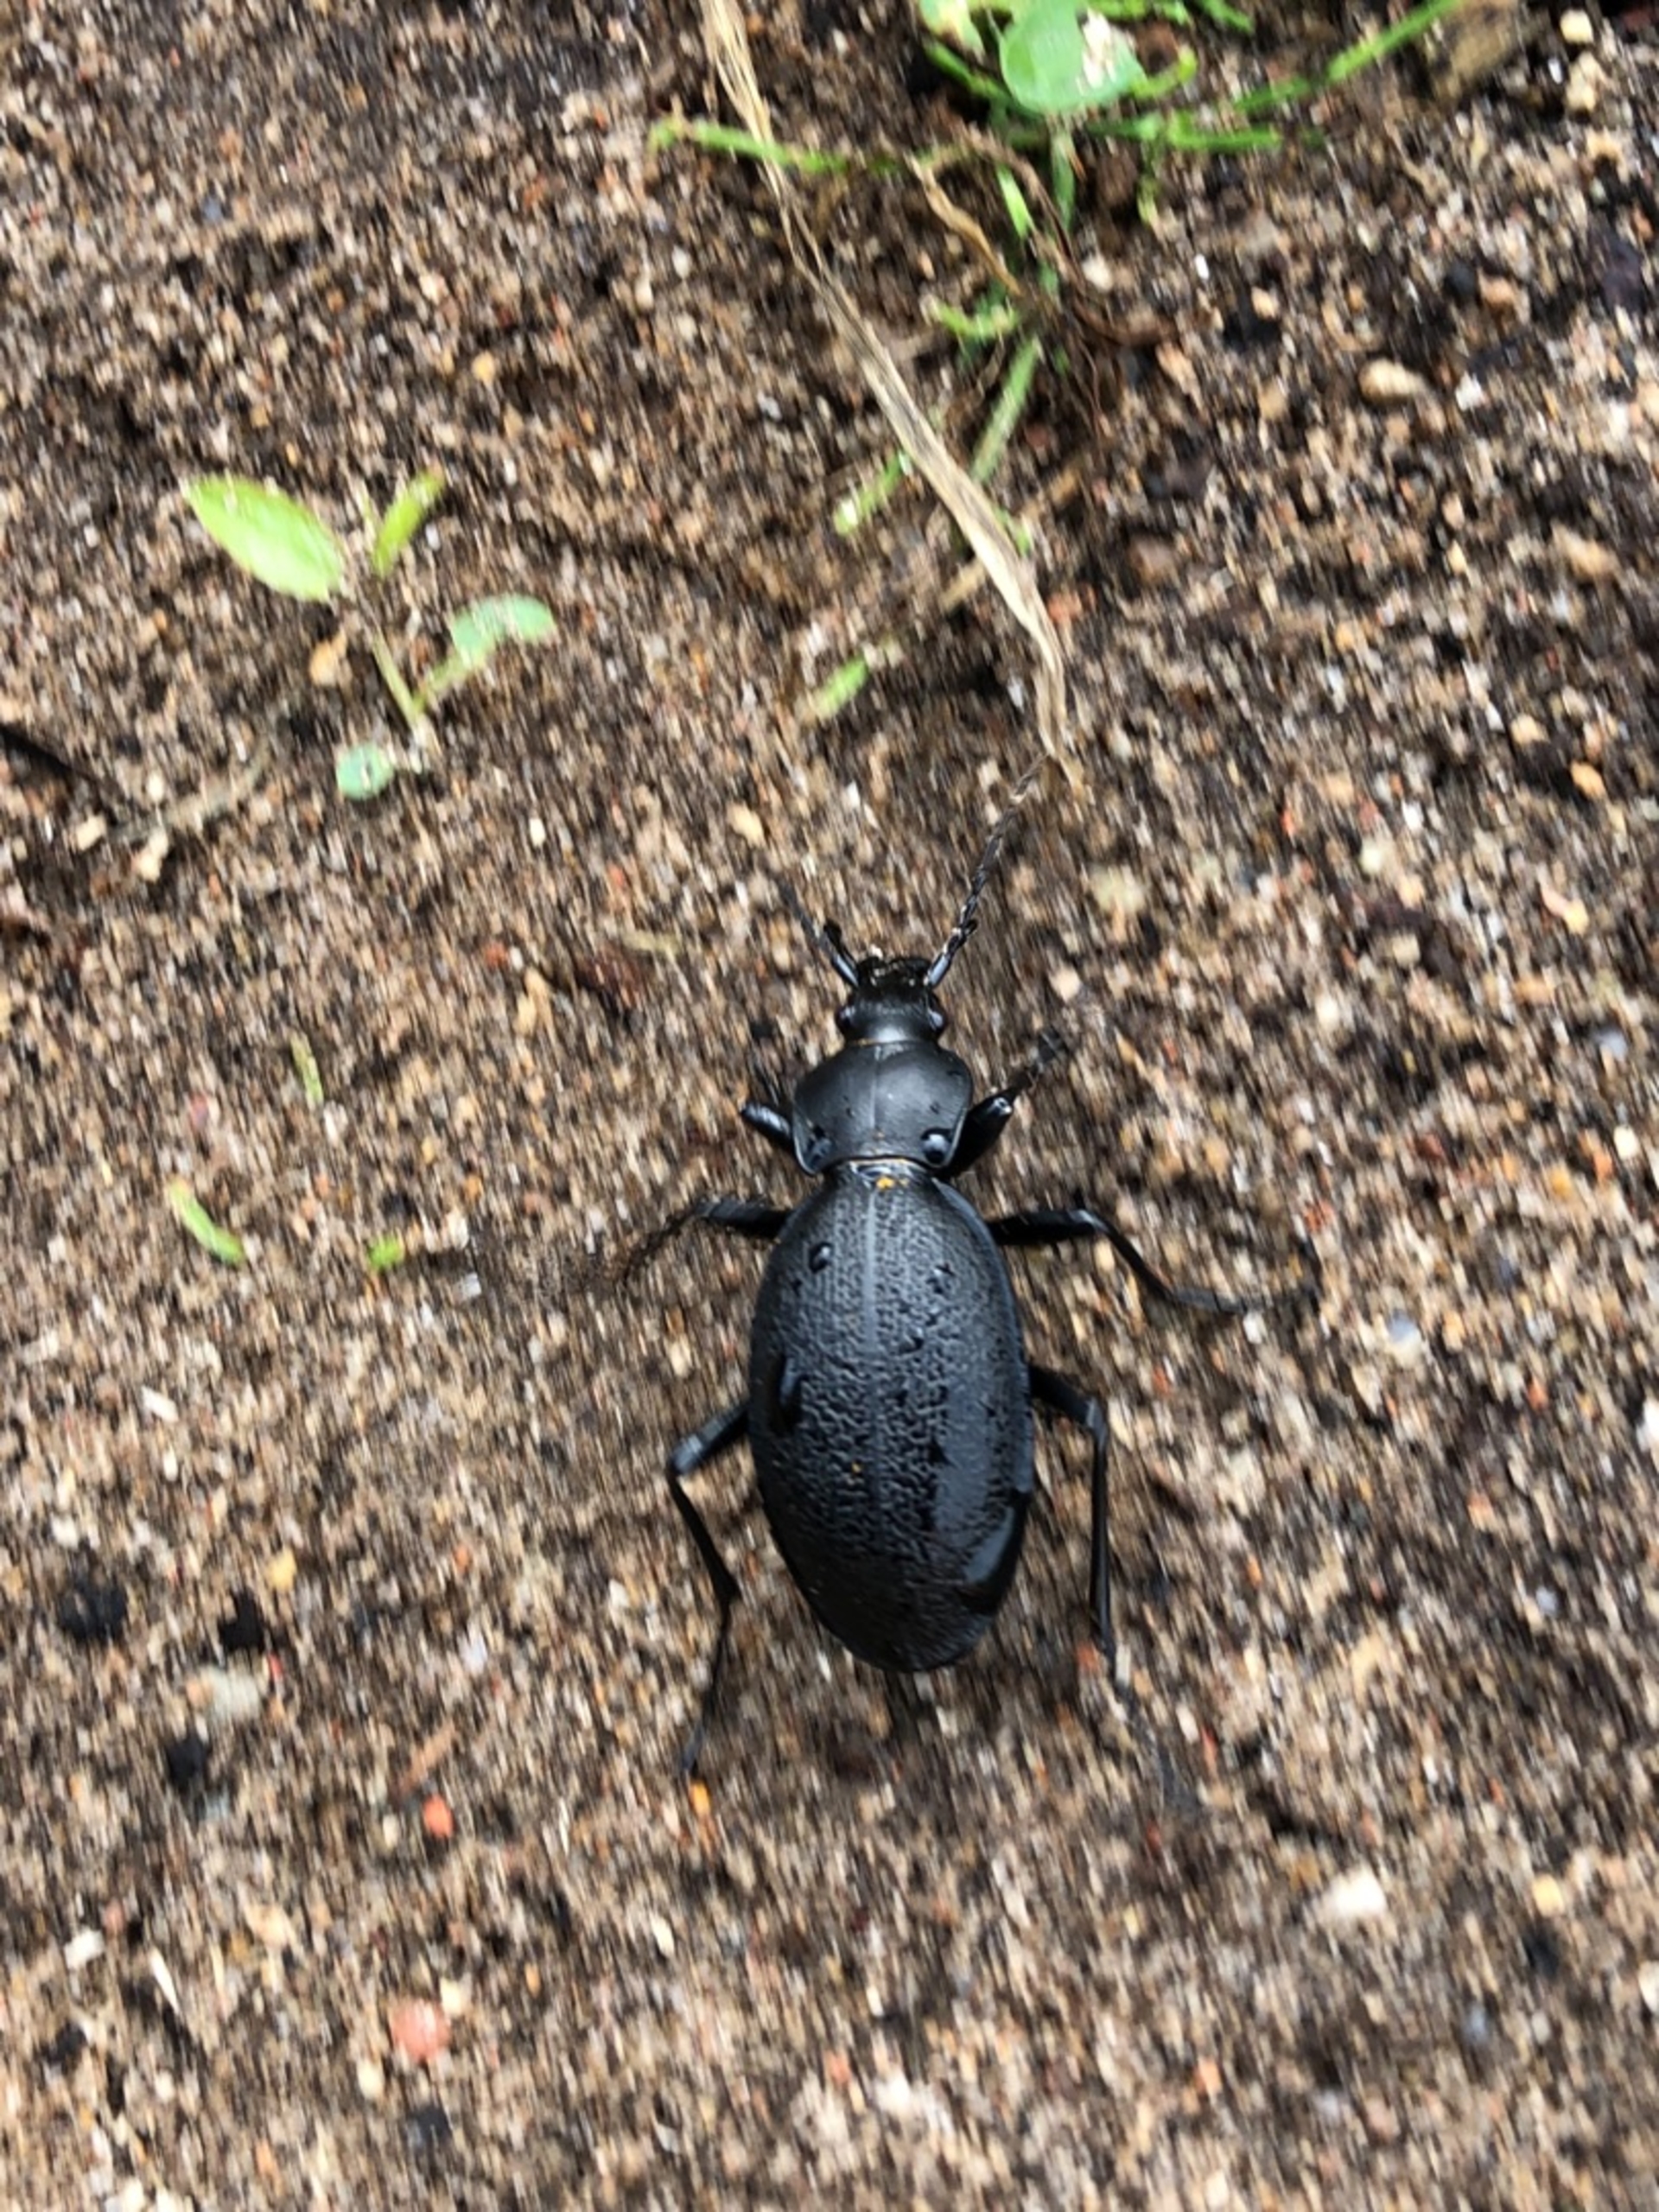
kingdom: Animalia
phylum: Arthropoda
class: Insecta
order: Coleoptera
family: Carabidae
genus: Carabus
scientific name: Carabus coriaceus
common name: Læderløber
